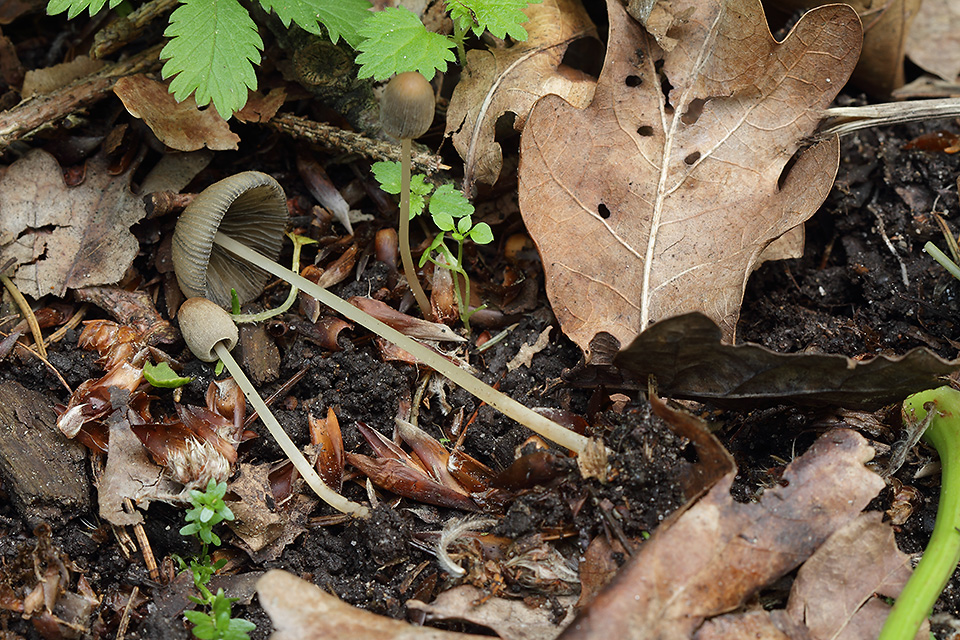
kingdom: Fungi
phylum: Basidiomycota
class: Agaricomycetes
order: Agaricales
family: Psathyrellaceae
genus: Parasola
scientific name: Parasola lactea
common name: glat hjulhat
